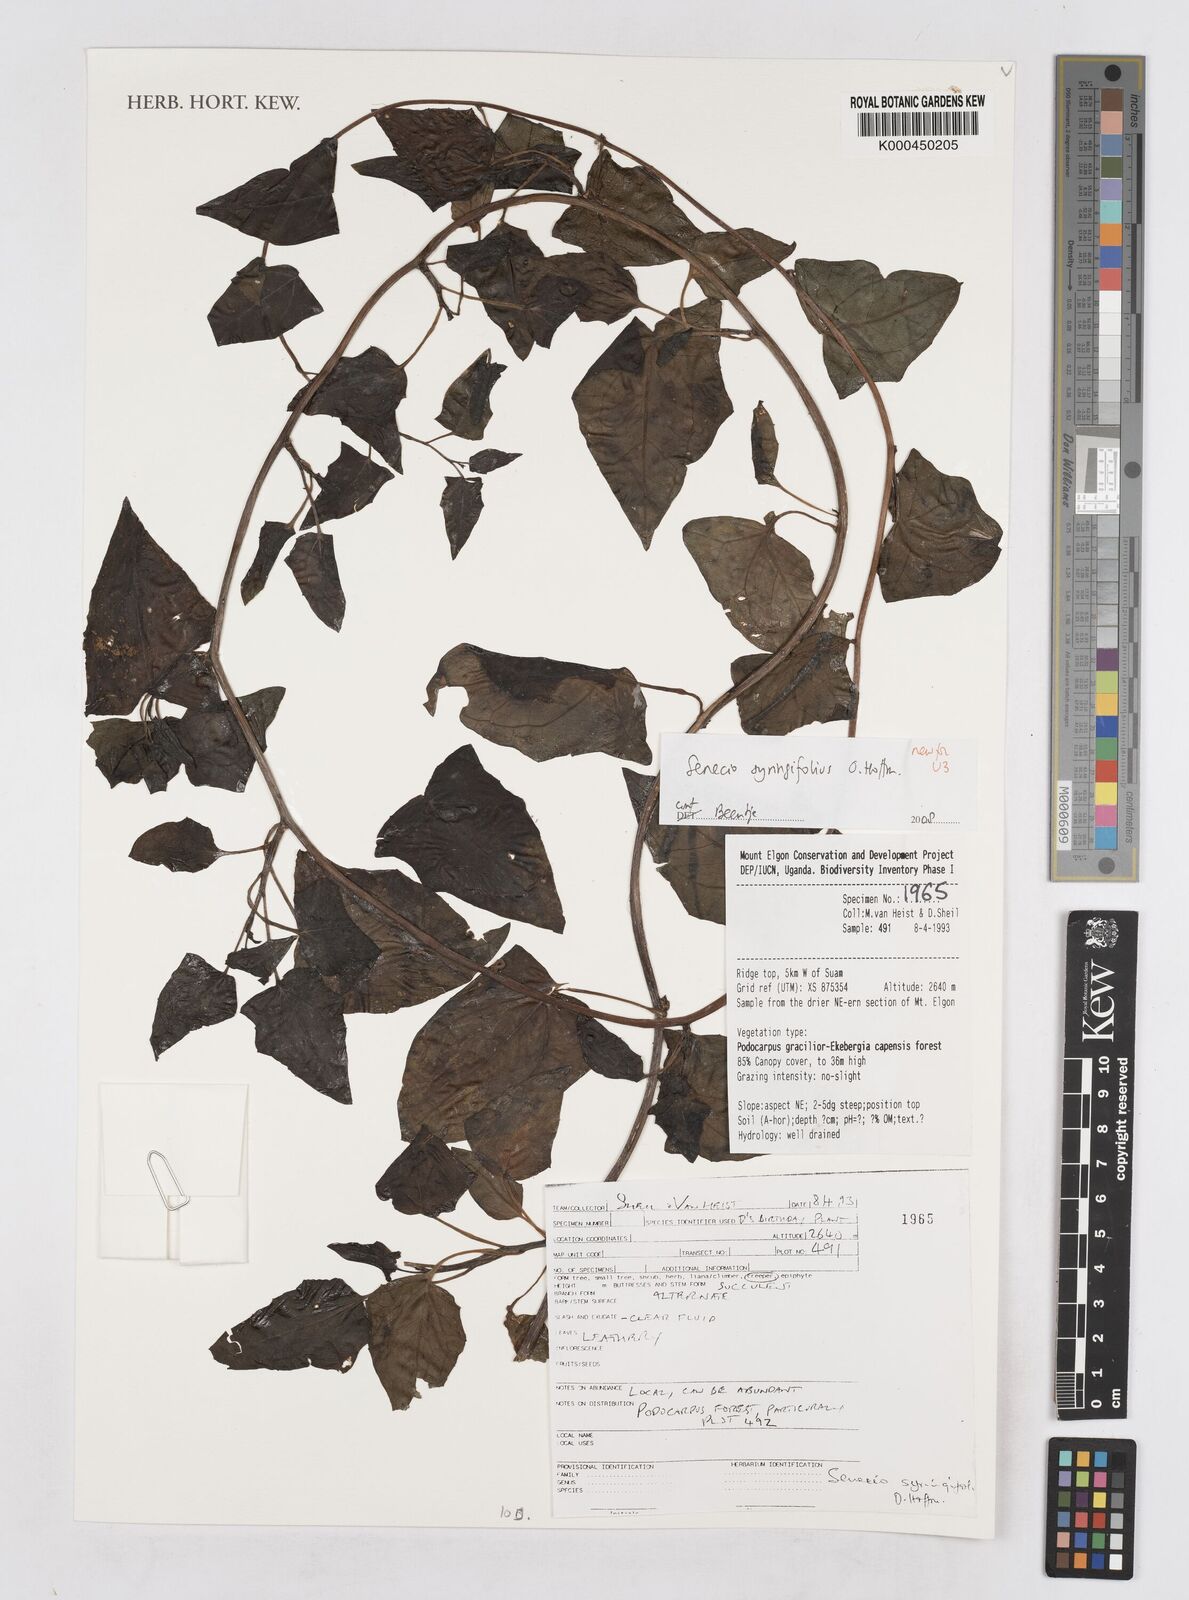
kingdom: Plantae
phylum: Tracheophyta
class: Magnoliopsida
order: Asterales
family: Asteraceae
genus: Senecio
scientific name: Senecio syringifolius
